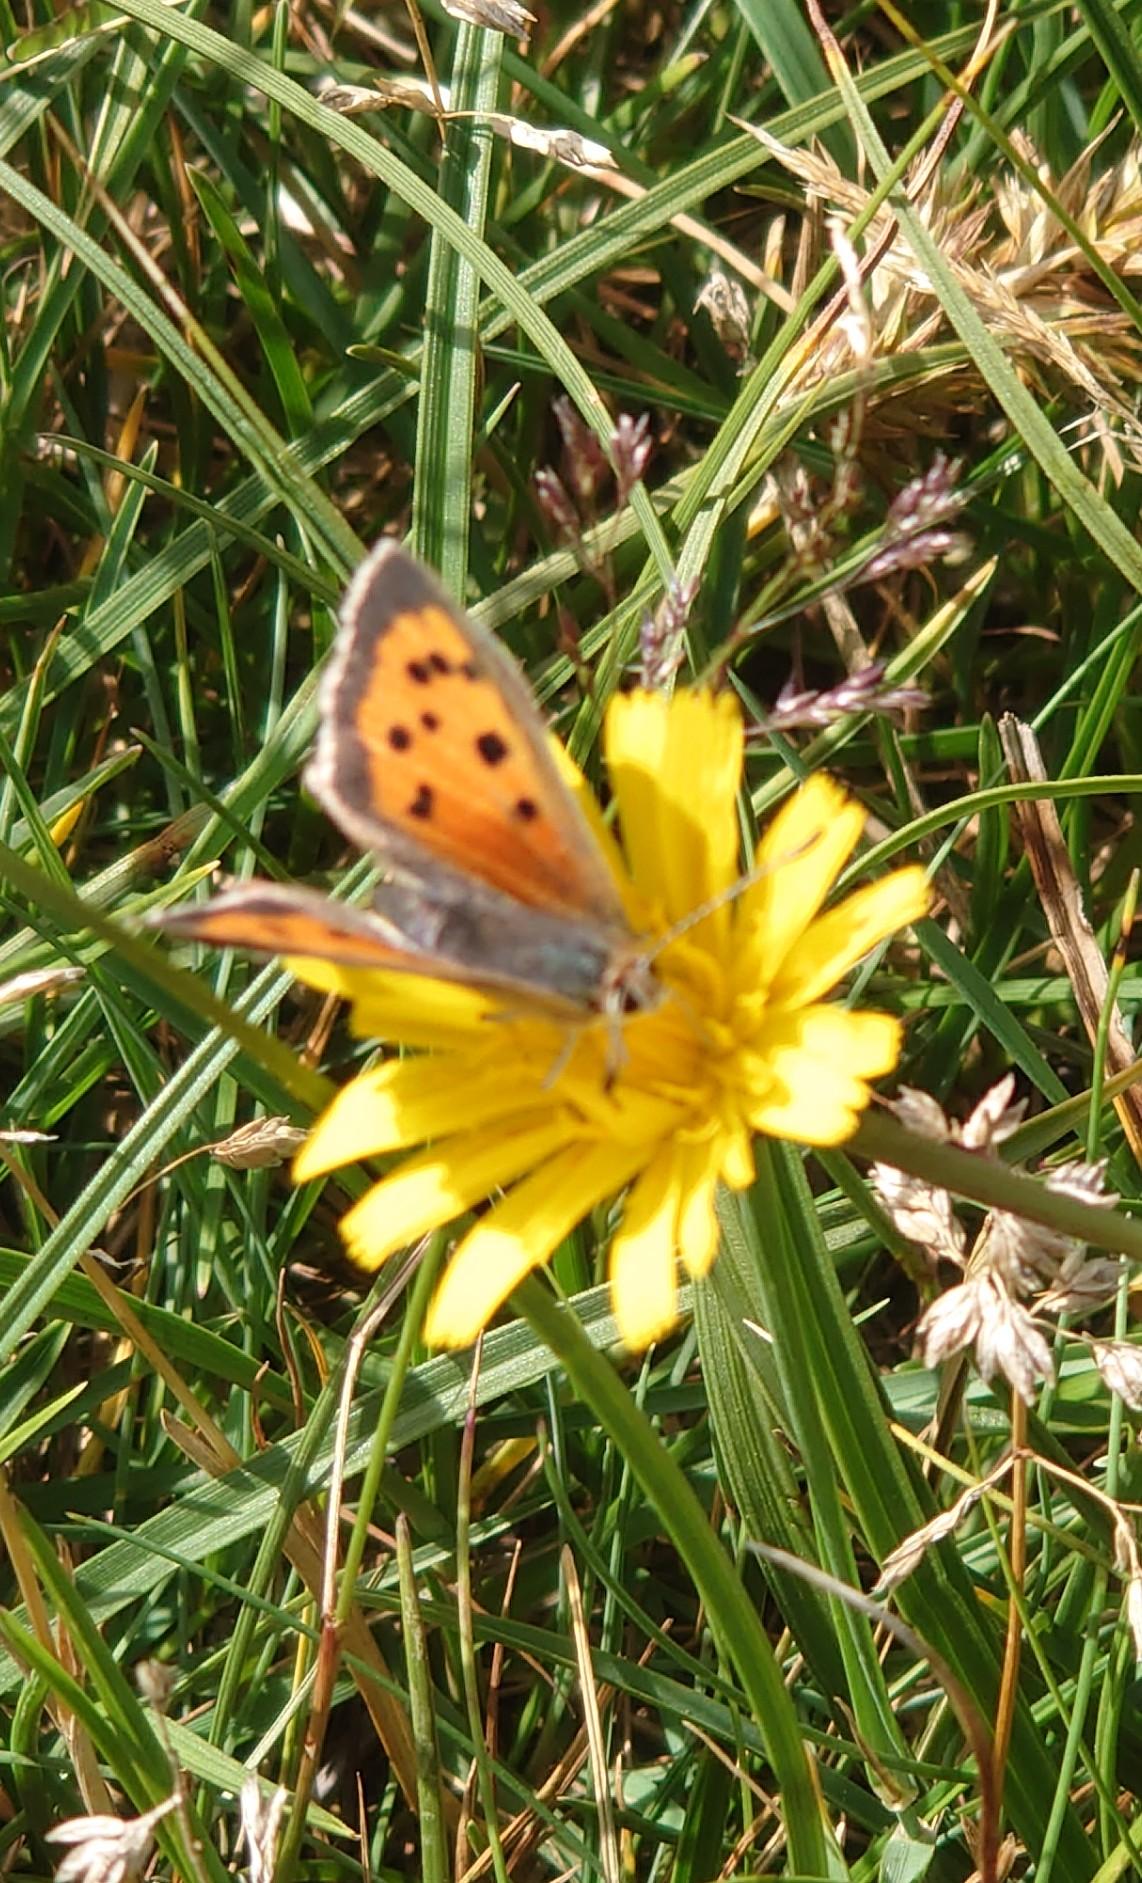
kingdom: Animalia
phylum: Arthropoda
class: Insecta
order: Lepidoptera
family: Lycaenidae
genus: Lycaena
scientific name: Lycaena phlaeas
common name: Lille ildfugl
